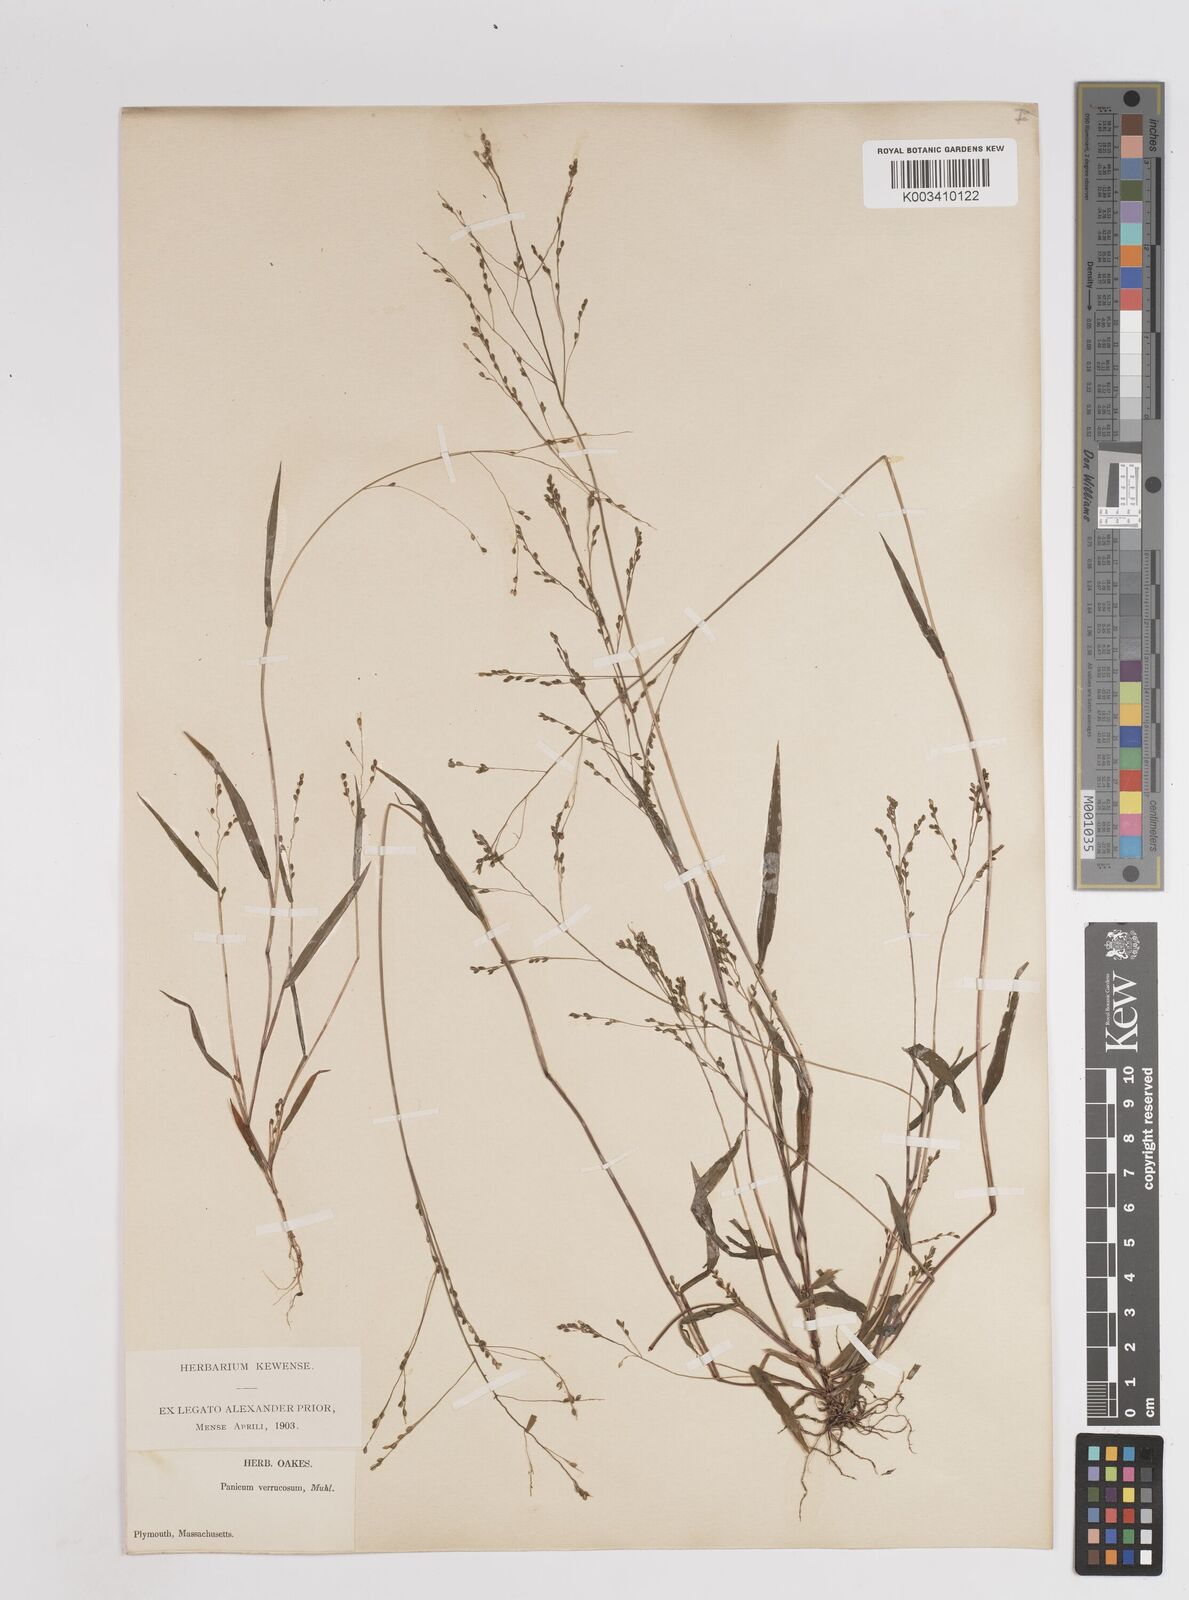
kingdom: Plantae
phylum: Tracheophyta
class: Liliopsida
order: Poales
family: Poaceae
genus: Kellochloa
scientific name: Kellochloa verrucosa
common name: Warty panic grass
